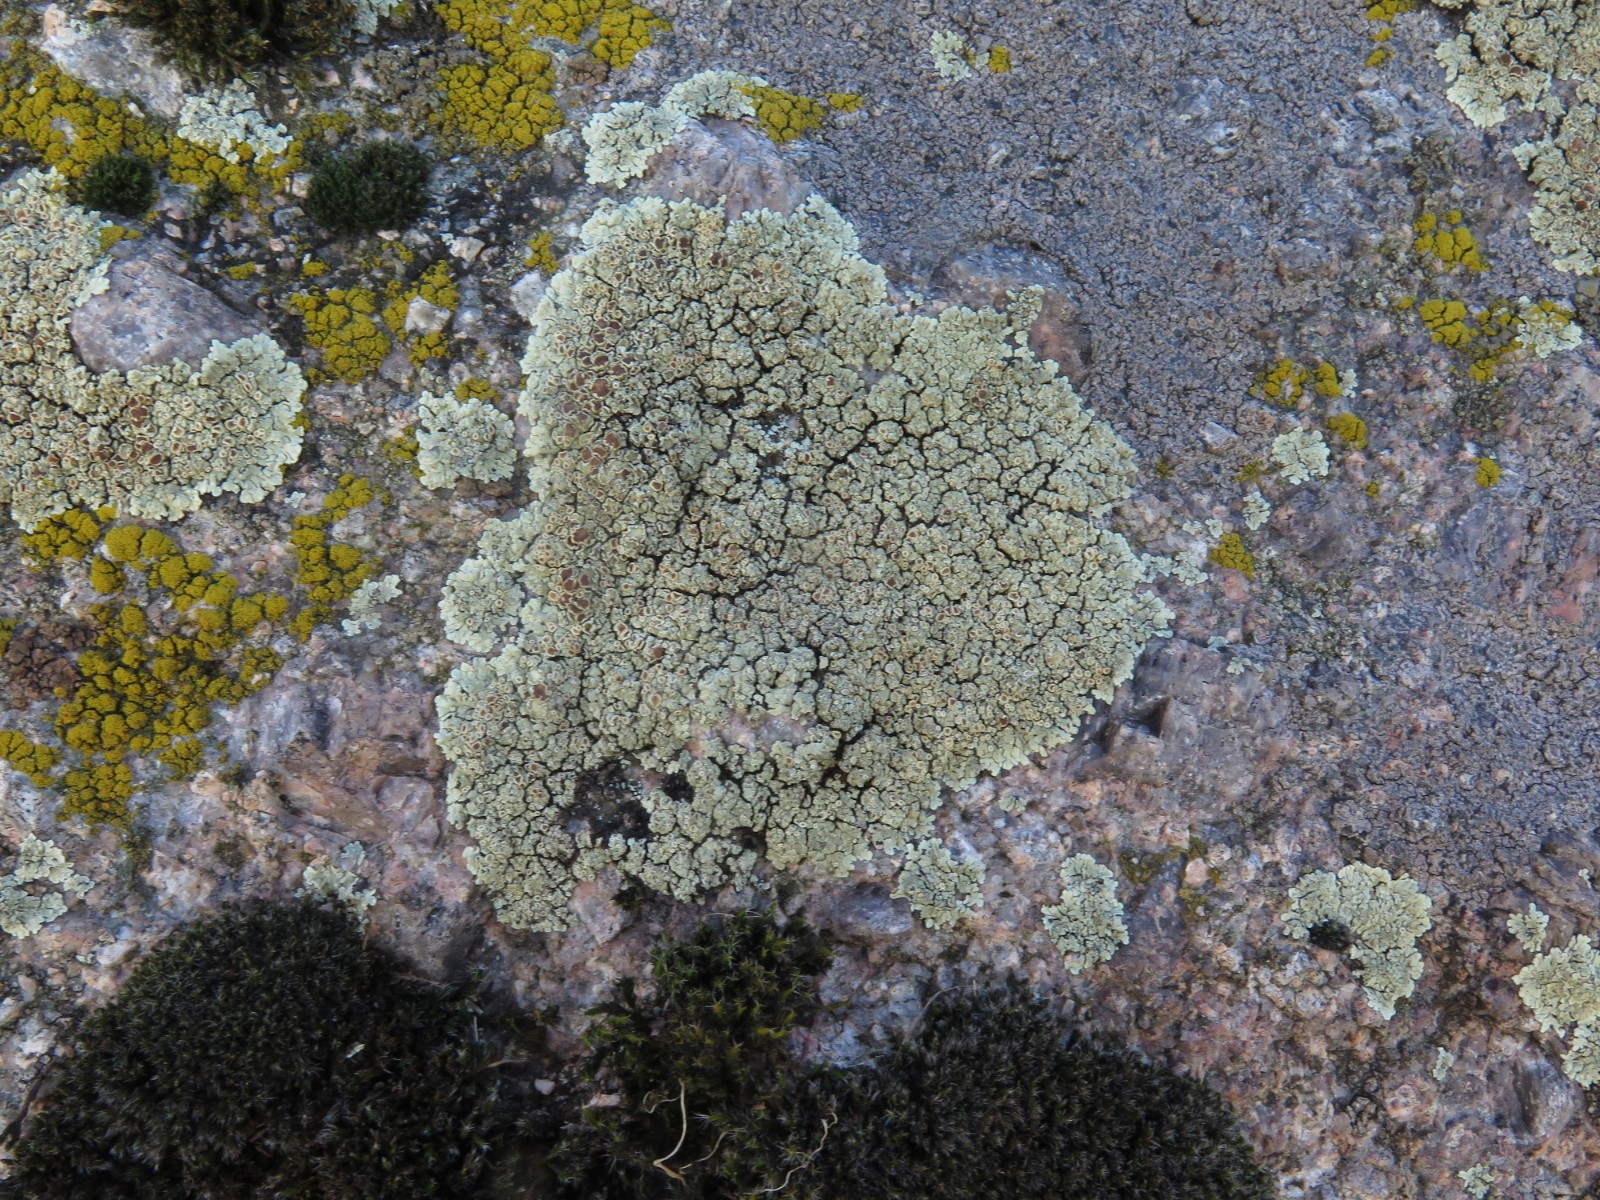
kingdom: Fungi
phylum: Ascomycota
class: Lecanoromycetes
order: Lecanorales
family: Lecanoraceae
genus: Protoparmeliopsis
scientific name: Protoparmeliopsis muralis
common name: randfliget kantskivelav
